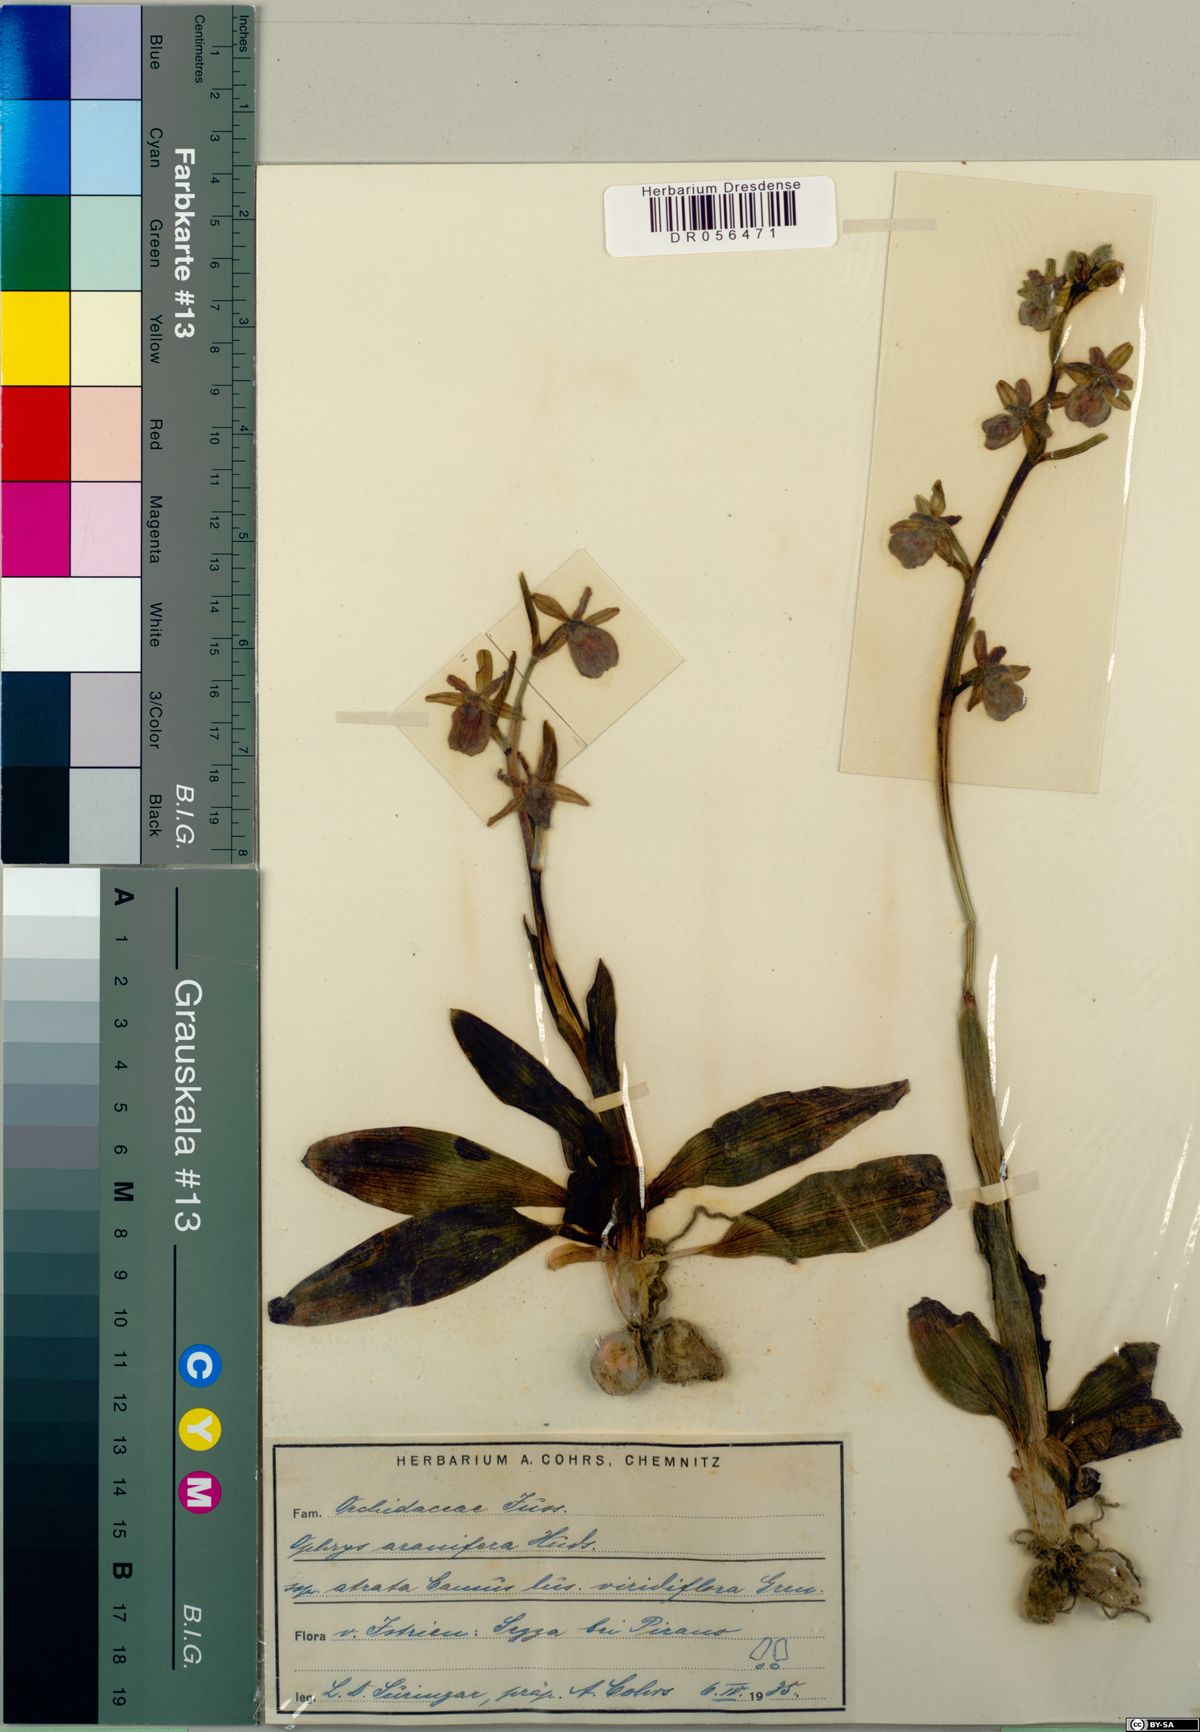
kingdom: Plantae
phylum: Tracheophyta
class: Liliopsida
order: Asparagales
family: Orchidaceae
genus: Ophrys
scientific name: Ophrys sphegodes
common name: Early spider-orchid
